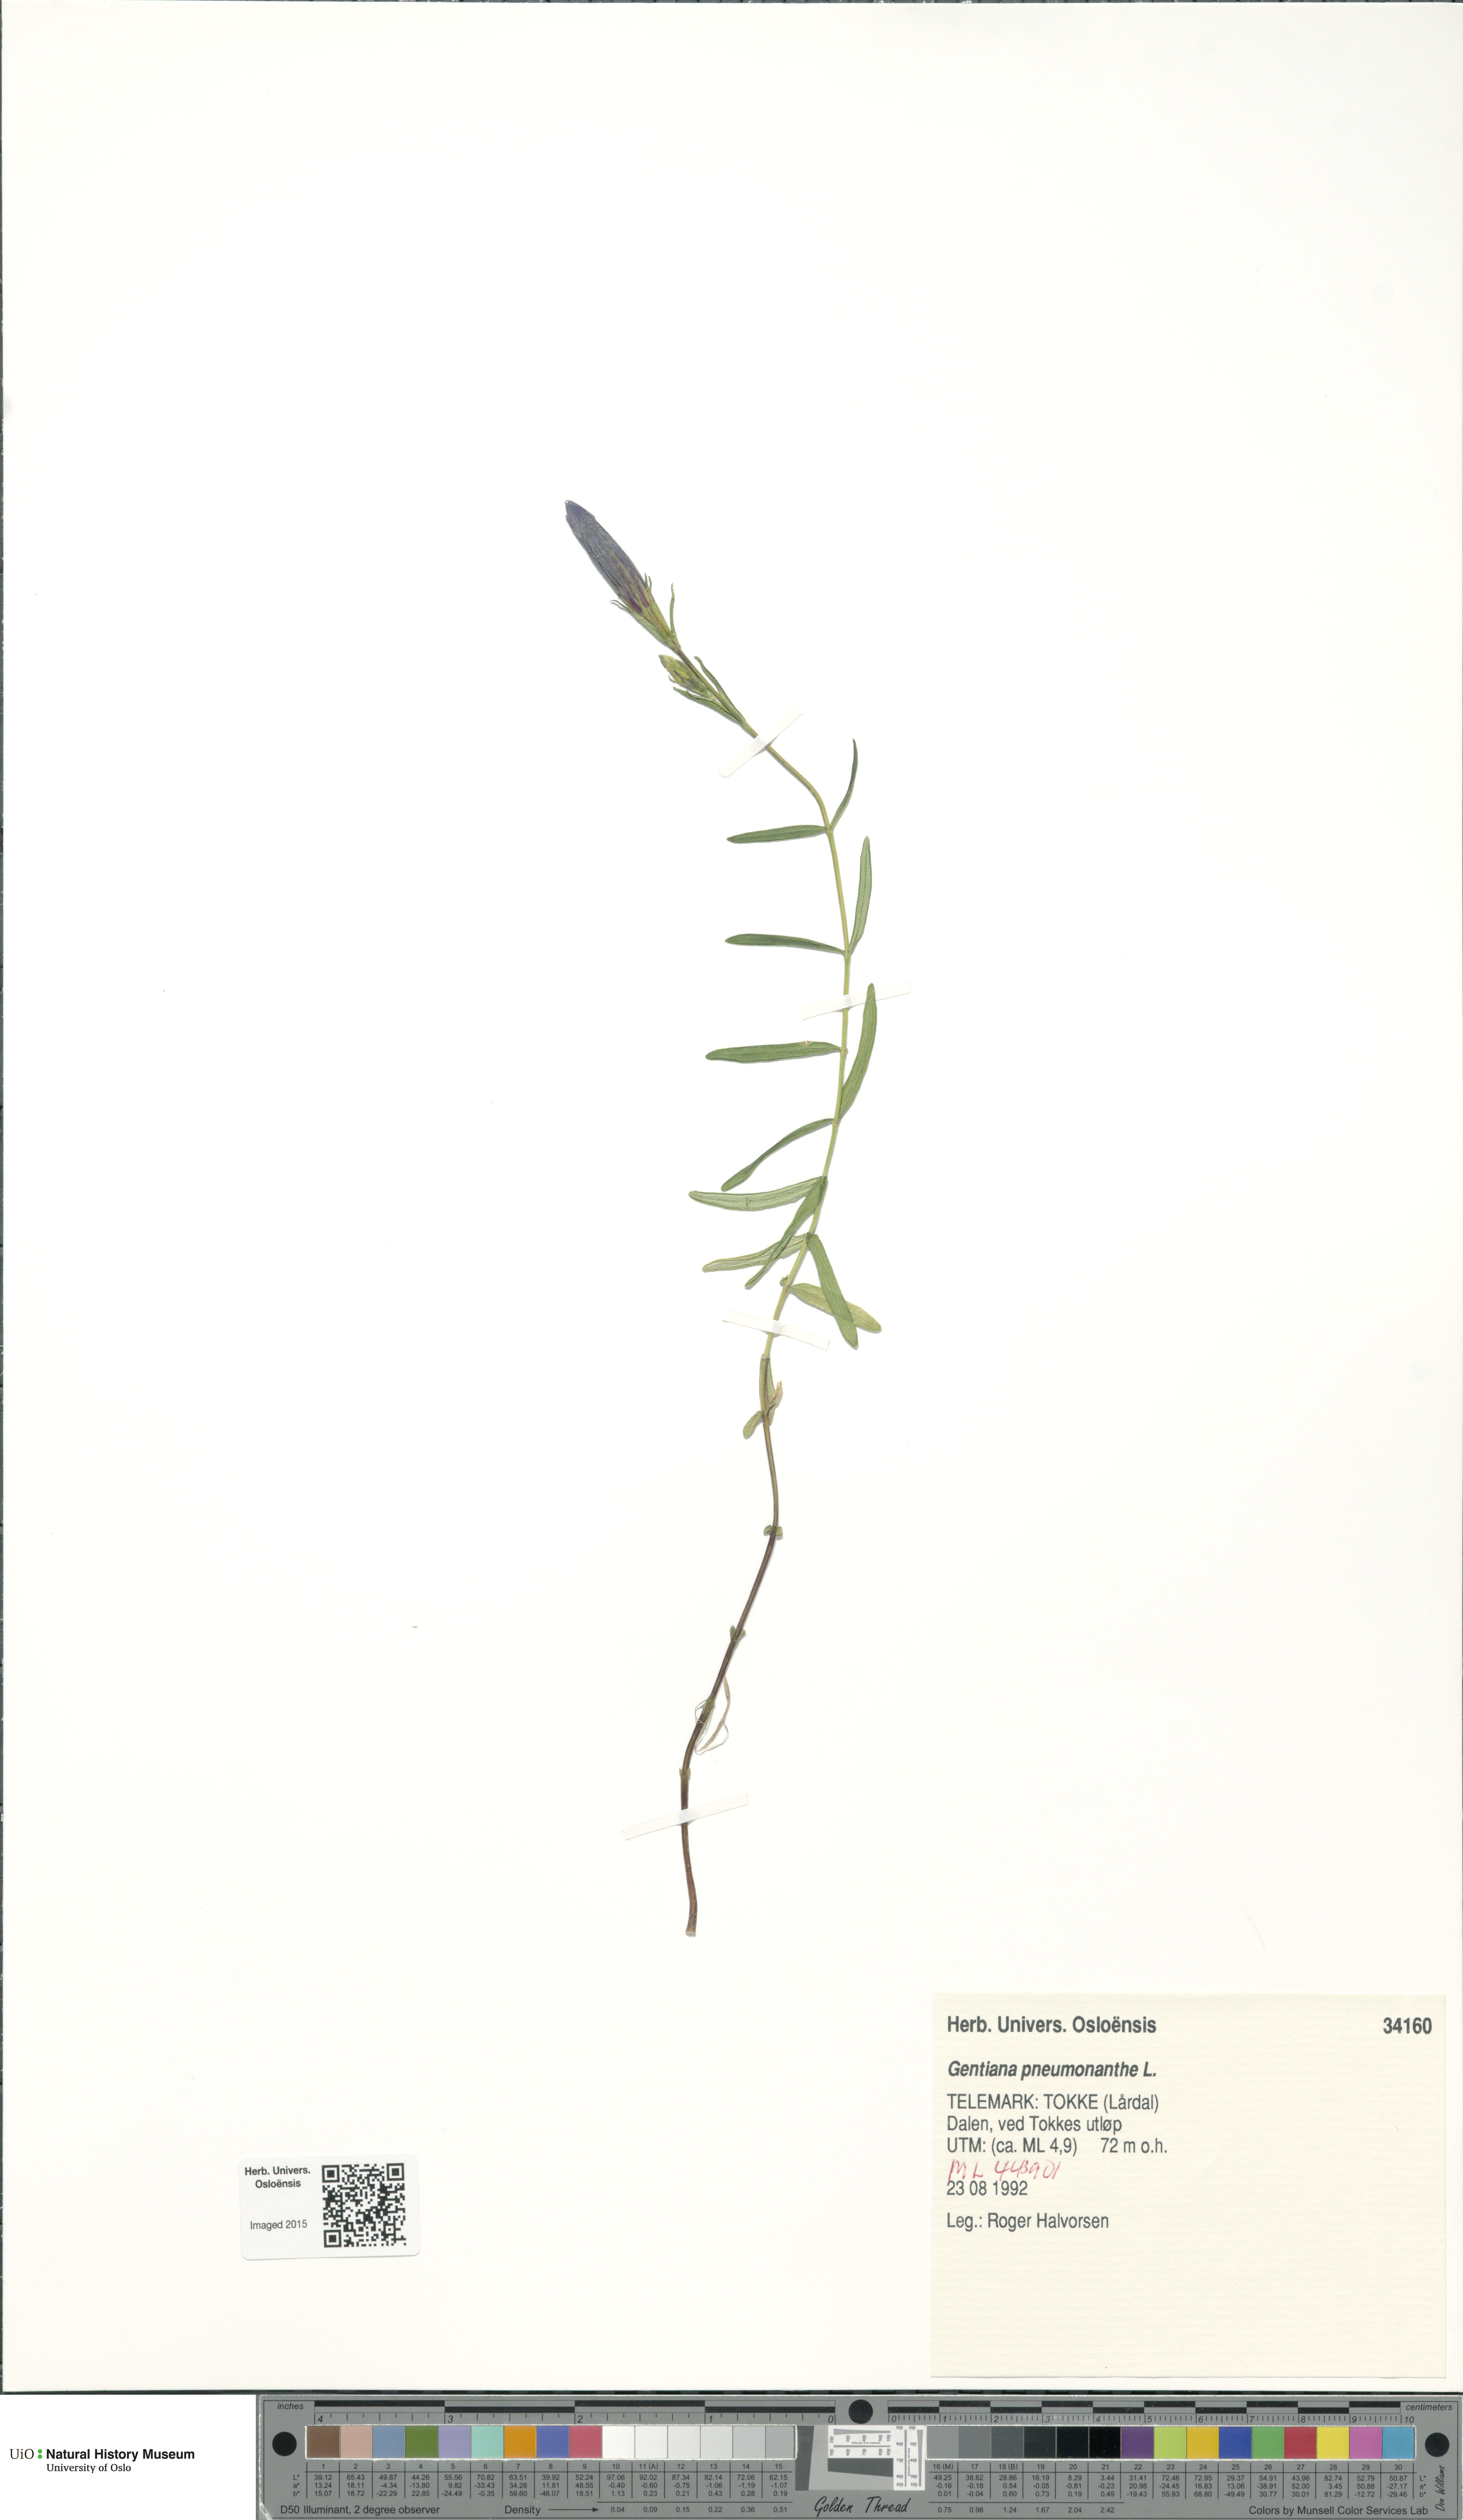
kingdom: Plantae
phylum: Tracheophyta
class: Magnoliopsida
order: Gentianales
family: Gentianaceae
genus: Gentiana
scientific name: Gentiana pneumonanthe
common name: Marsh gentian
